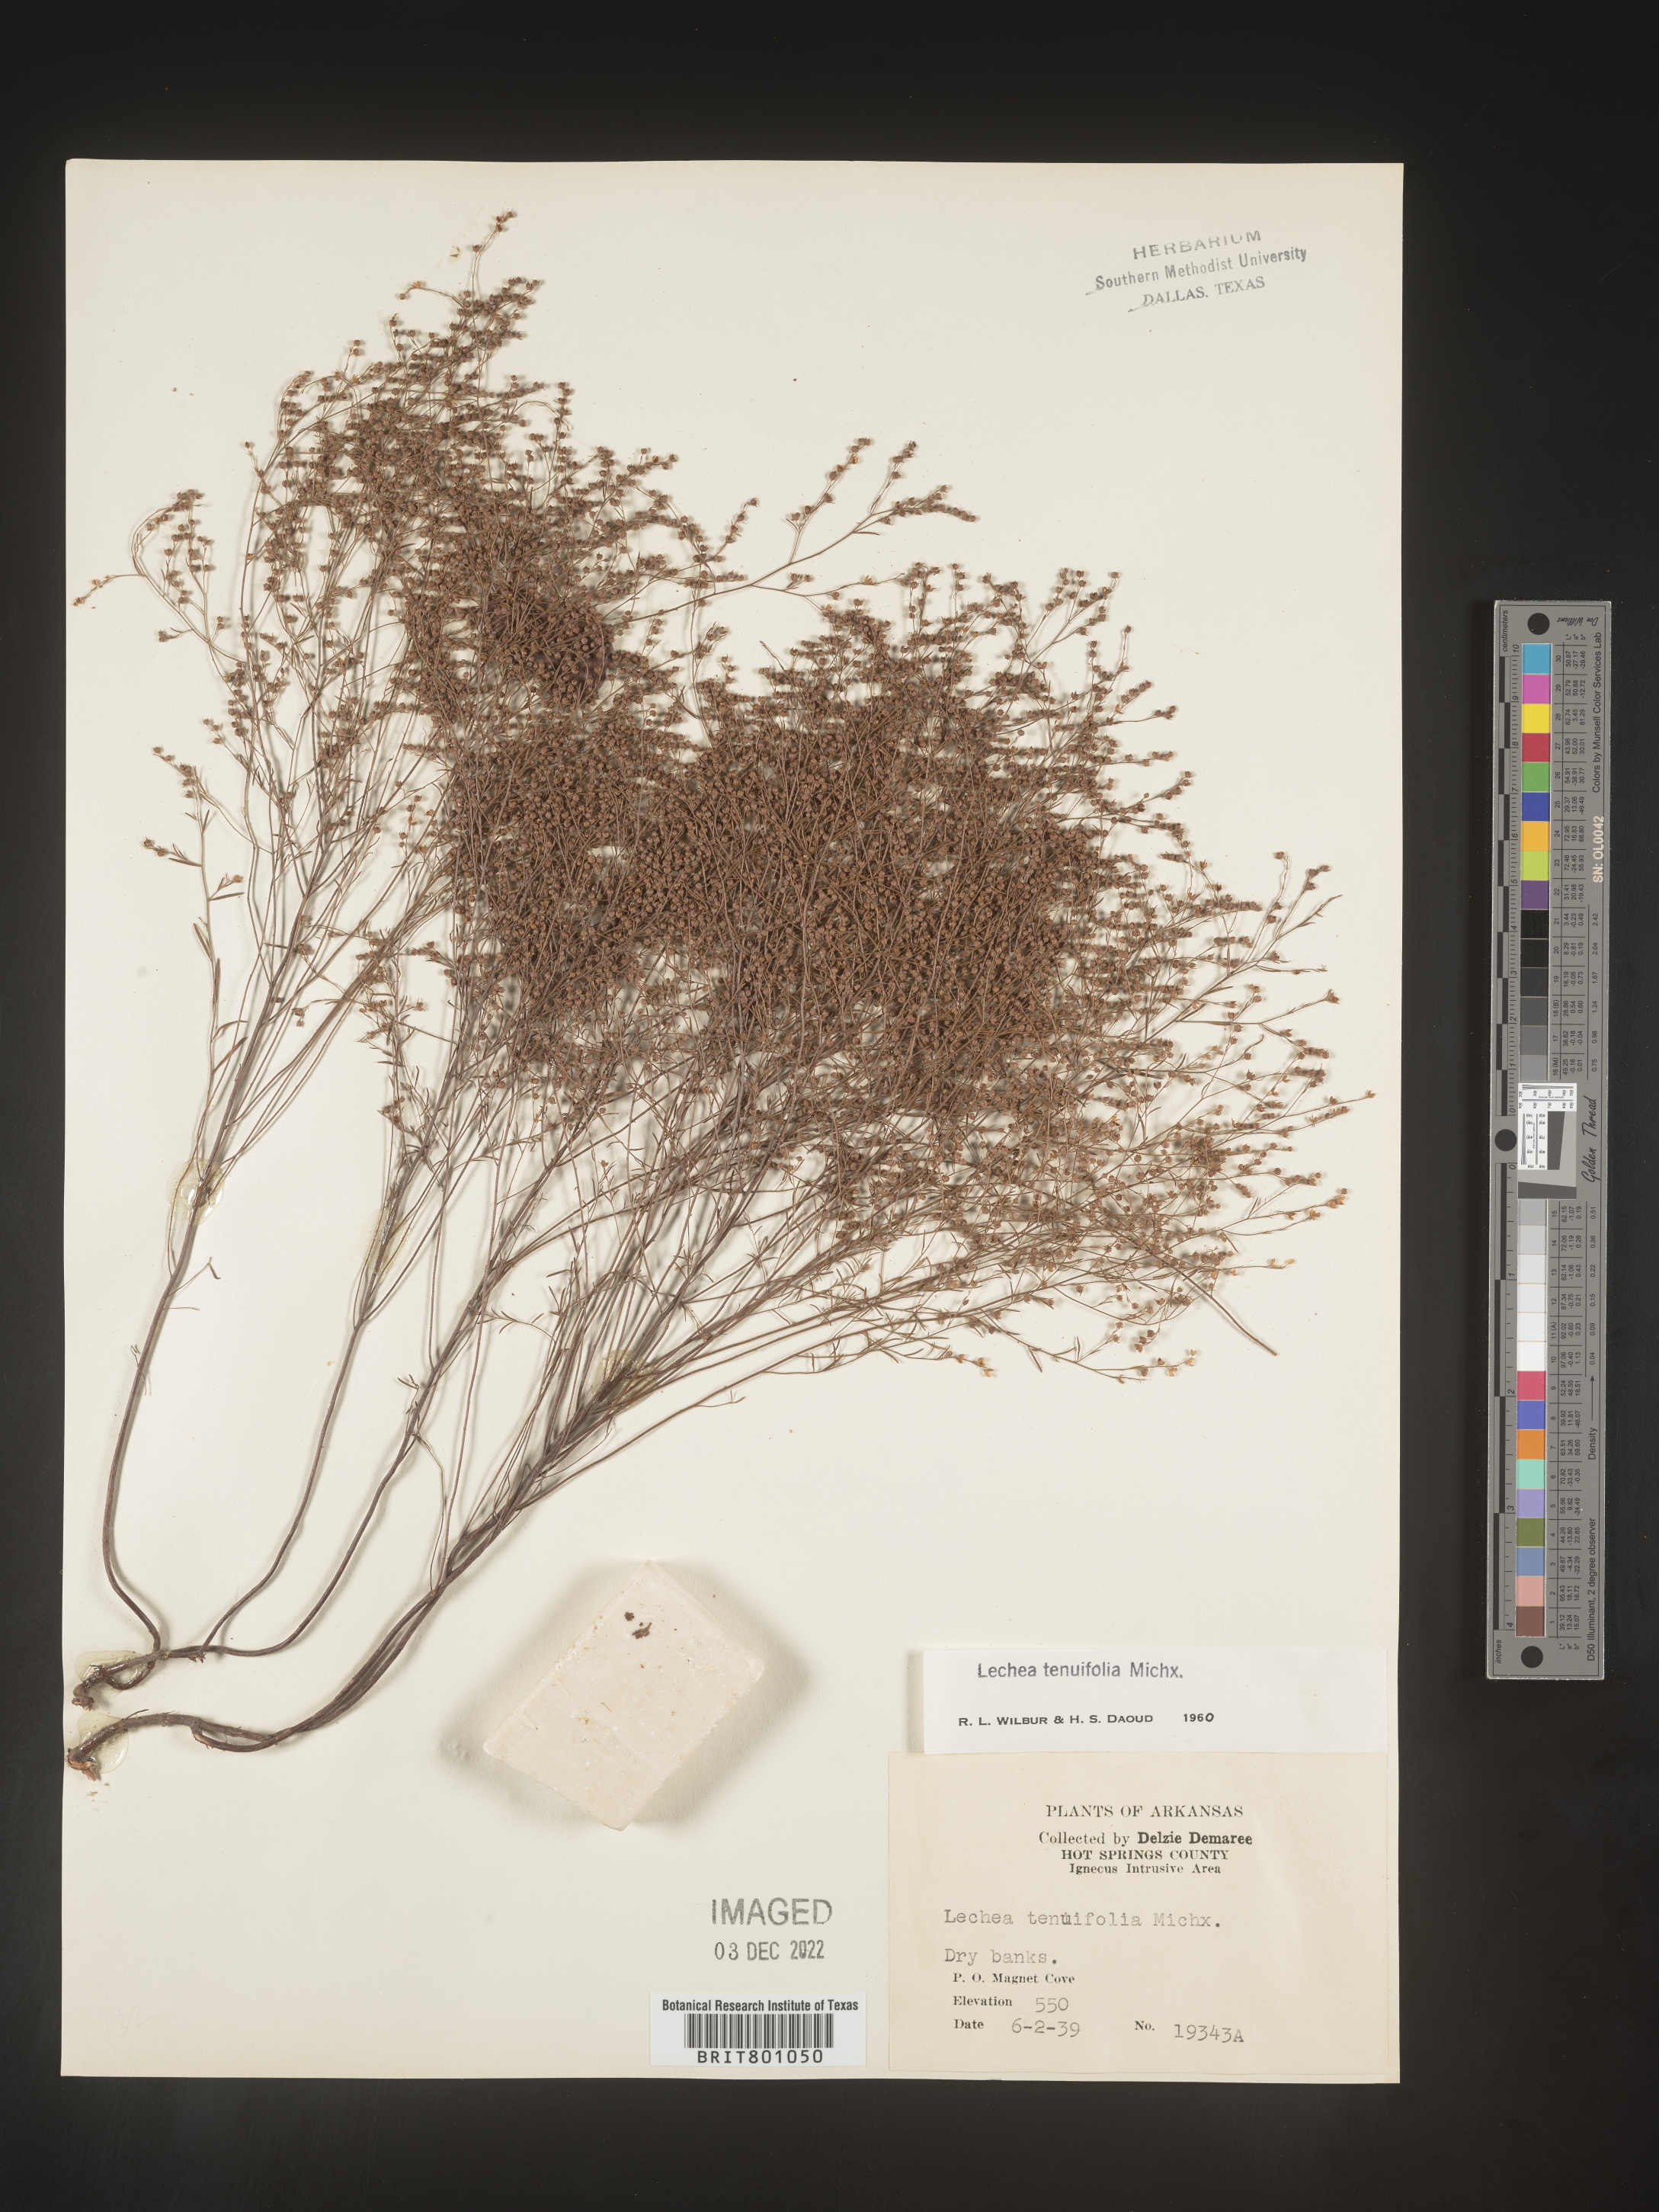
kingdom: Plantae
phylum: Tracheophyta
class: Magnoliopsida
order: Malvales
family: Cistaceae
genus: Lechea
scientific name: Lechea tenuifolia
